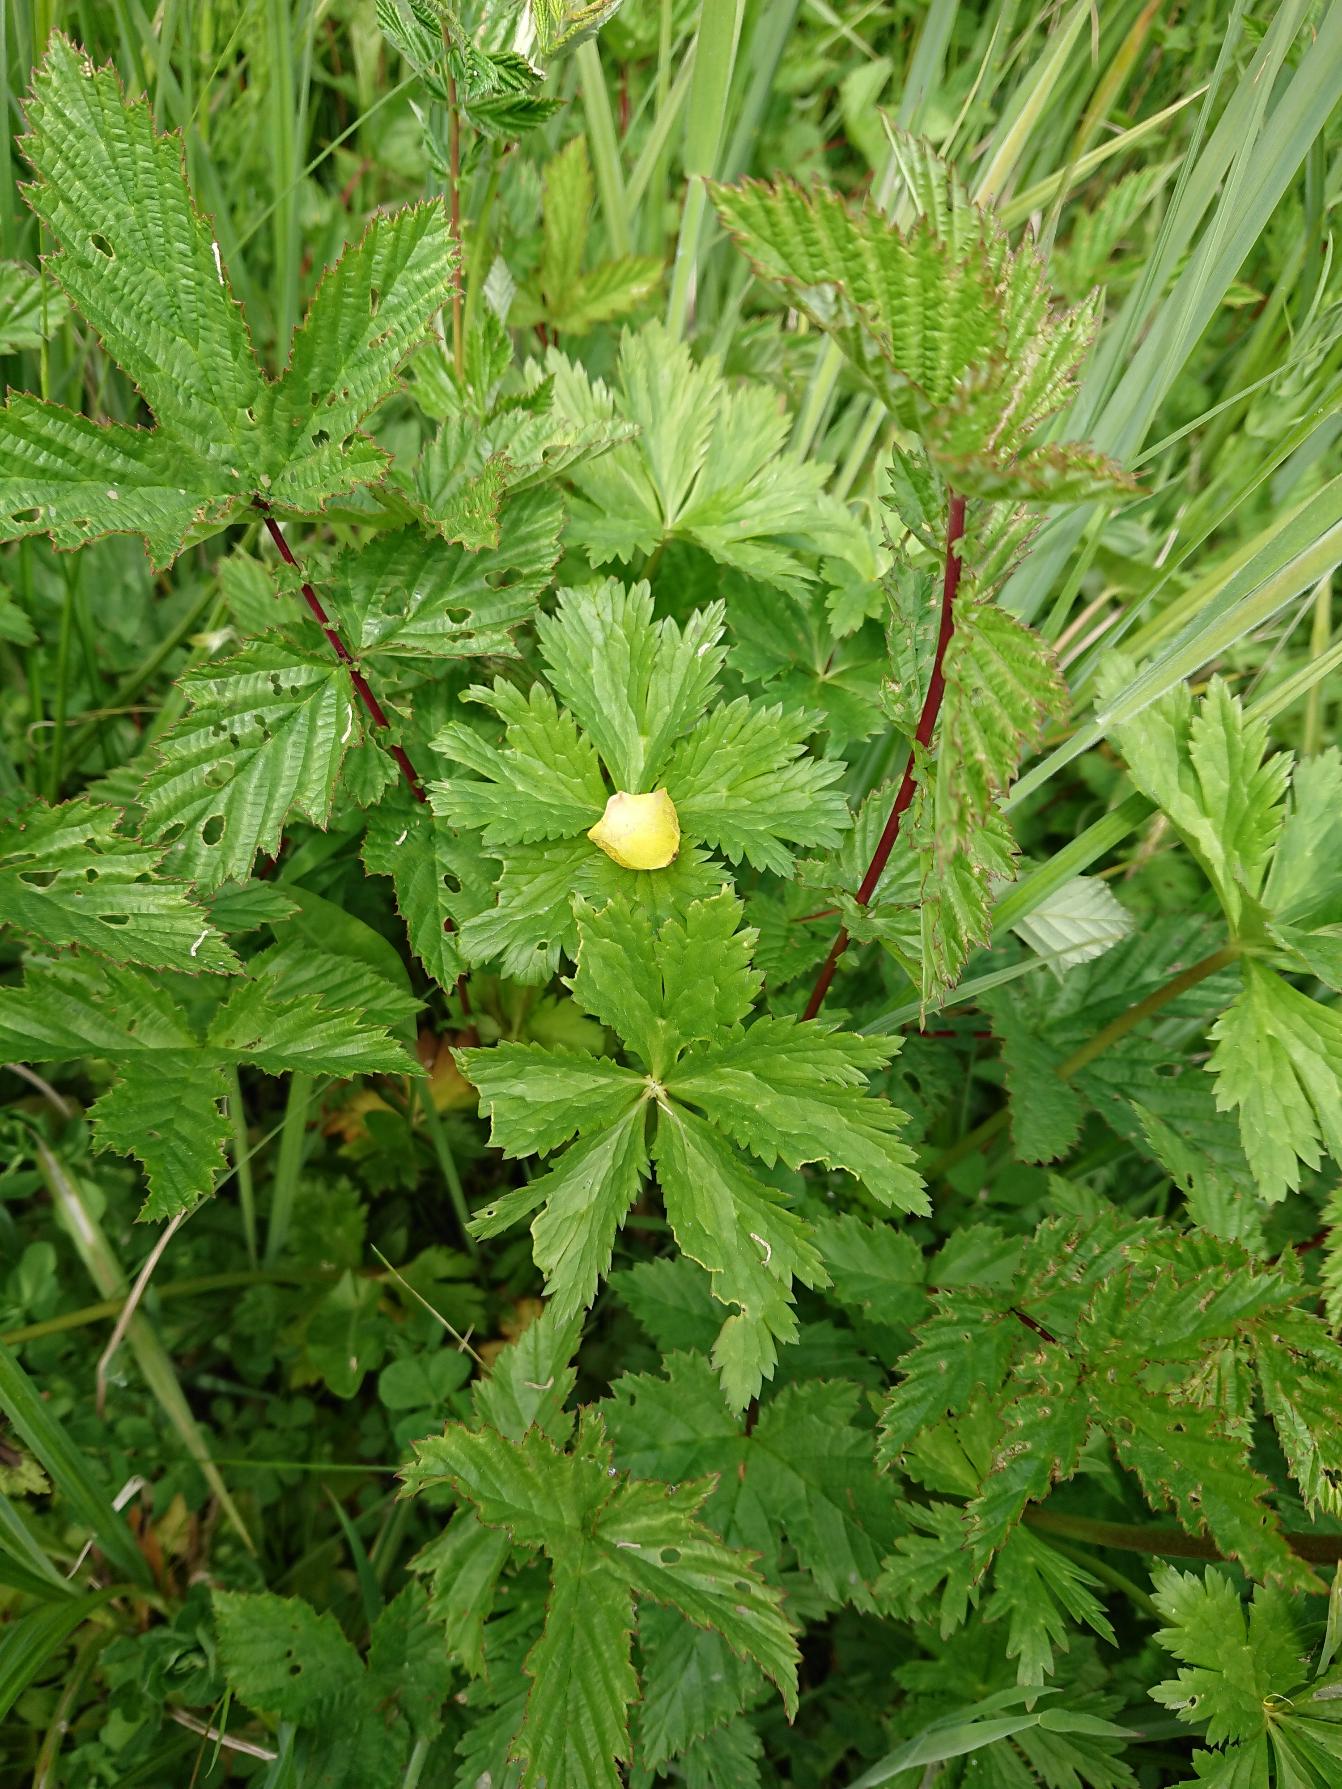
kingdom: Plantae
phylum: Tracheophyta
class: Magnoliopsida
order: Ranunculales
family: Ranunculaceae
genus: Trollius
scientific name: Trollius europaeus
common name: Engblomme
